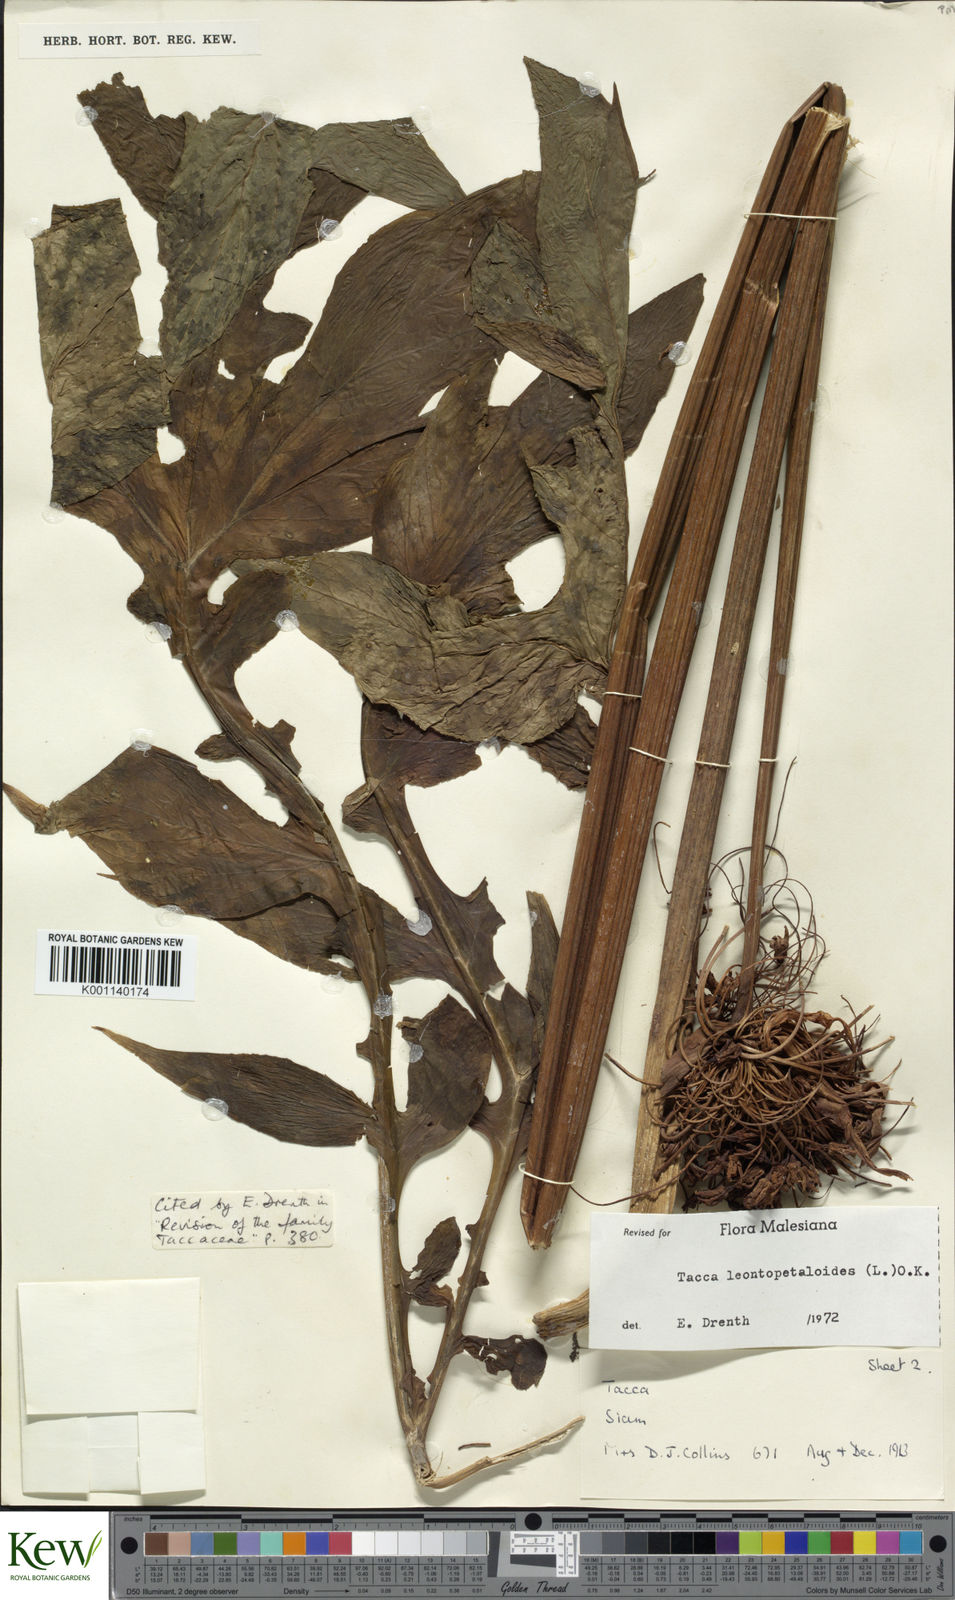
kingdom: Plantae
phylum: Tracheophyta
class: Liliopsida
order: Dioscoreales
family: Dioscoreaceae
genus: Tacca
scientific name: Tacca leontopetaloides
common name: Arrowroot
